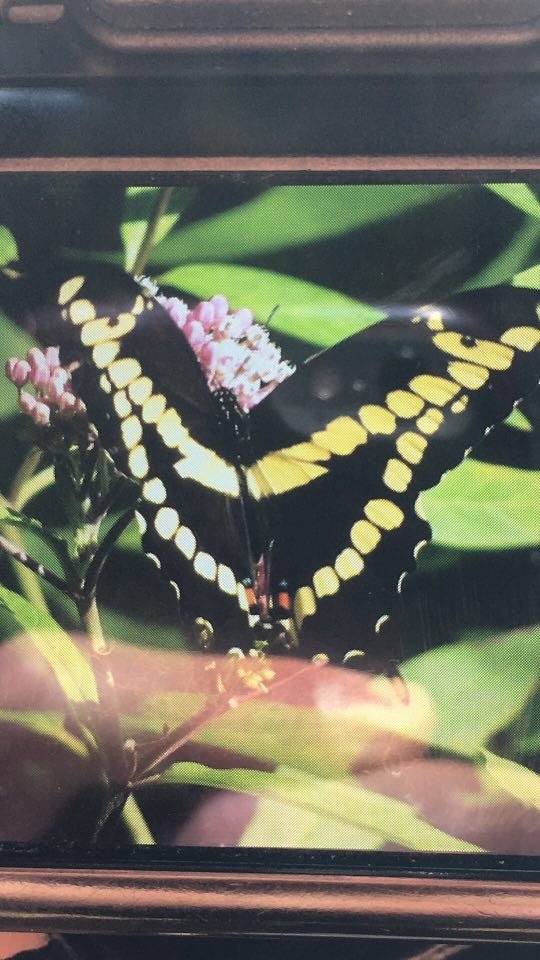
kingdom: Animalia
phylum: Arthropoda
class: Insecta
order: Lepidoptera
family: Papilionidae
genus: Papilio
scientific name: Papilio cresphontes
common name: Eastern Giant Swallowtail
